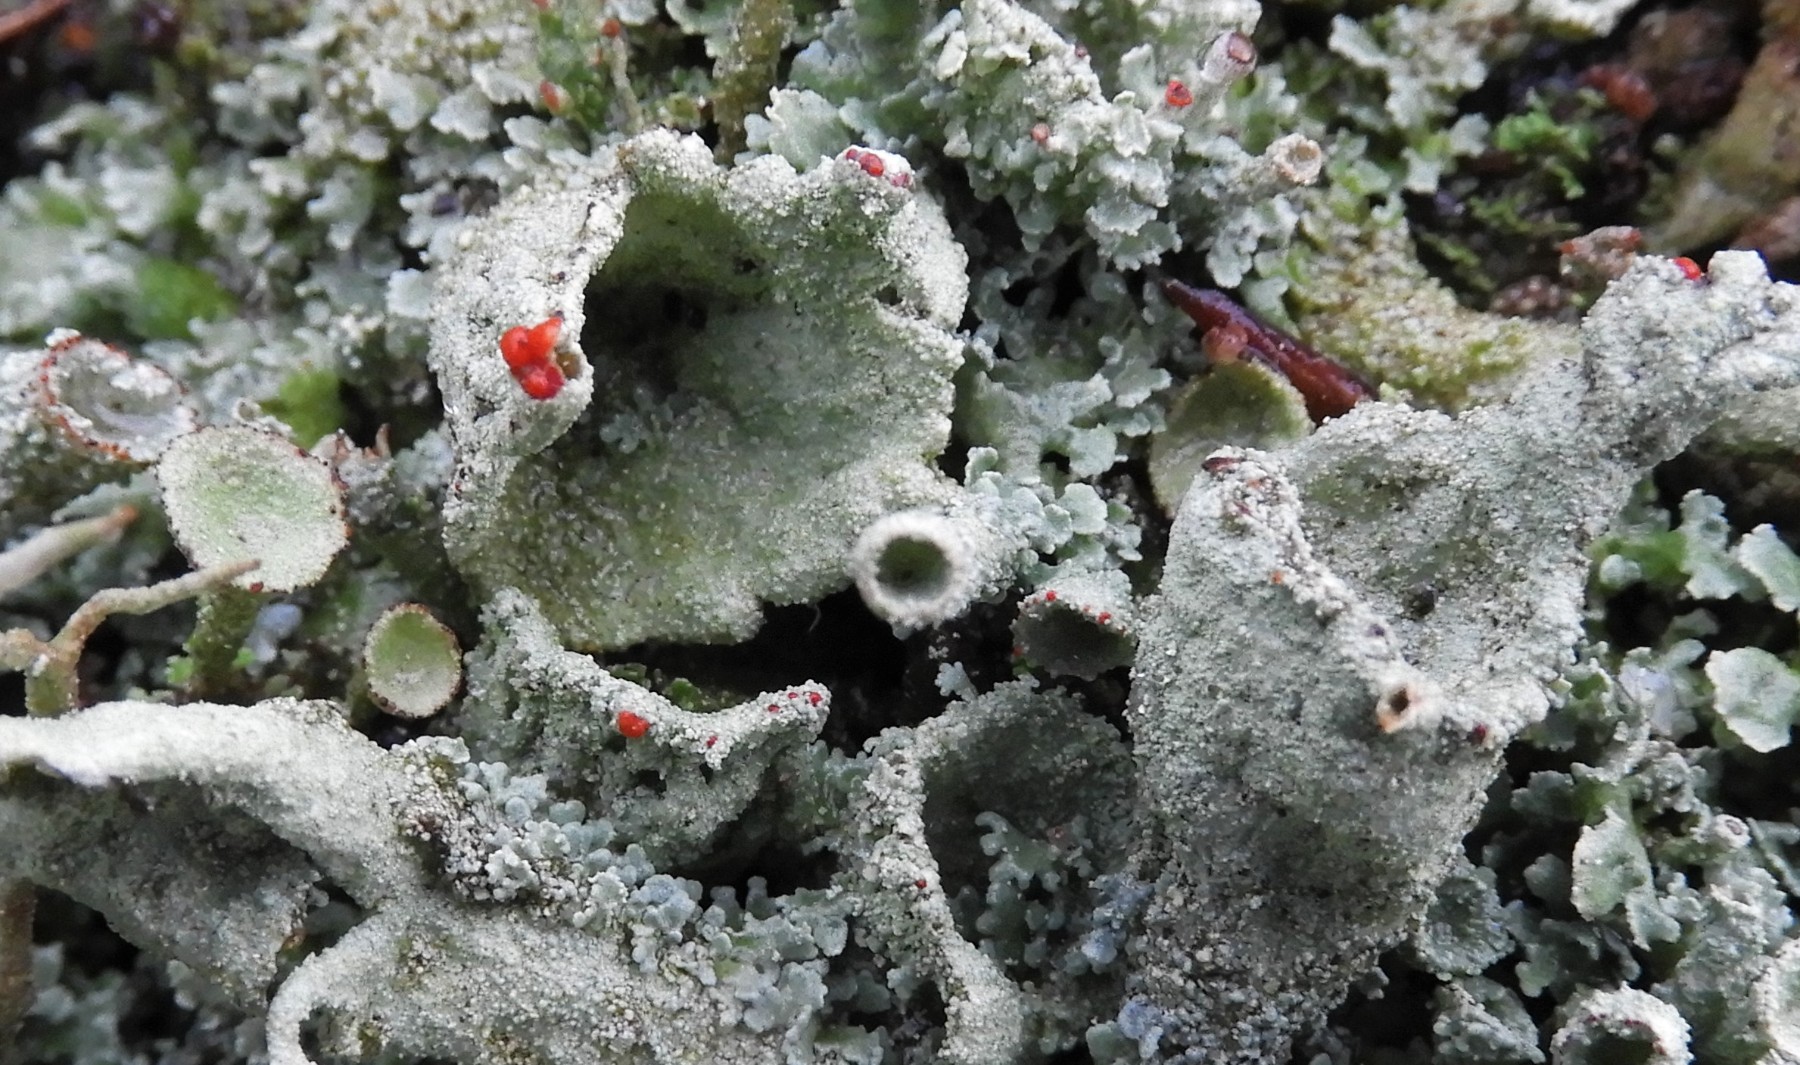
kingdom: Fungi
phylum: Ascomycota
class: Lecanoromycetes
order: Lecanorales
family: Cladoniaceae
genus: Cladonia
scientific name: Cladonia diversa
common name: rød bægerlav
